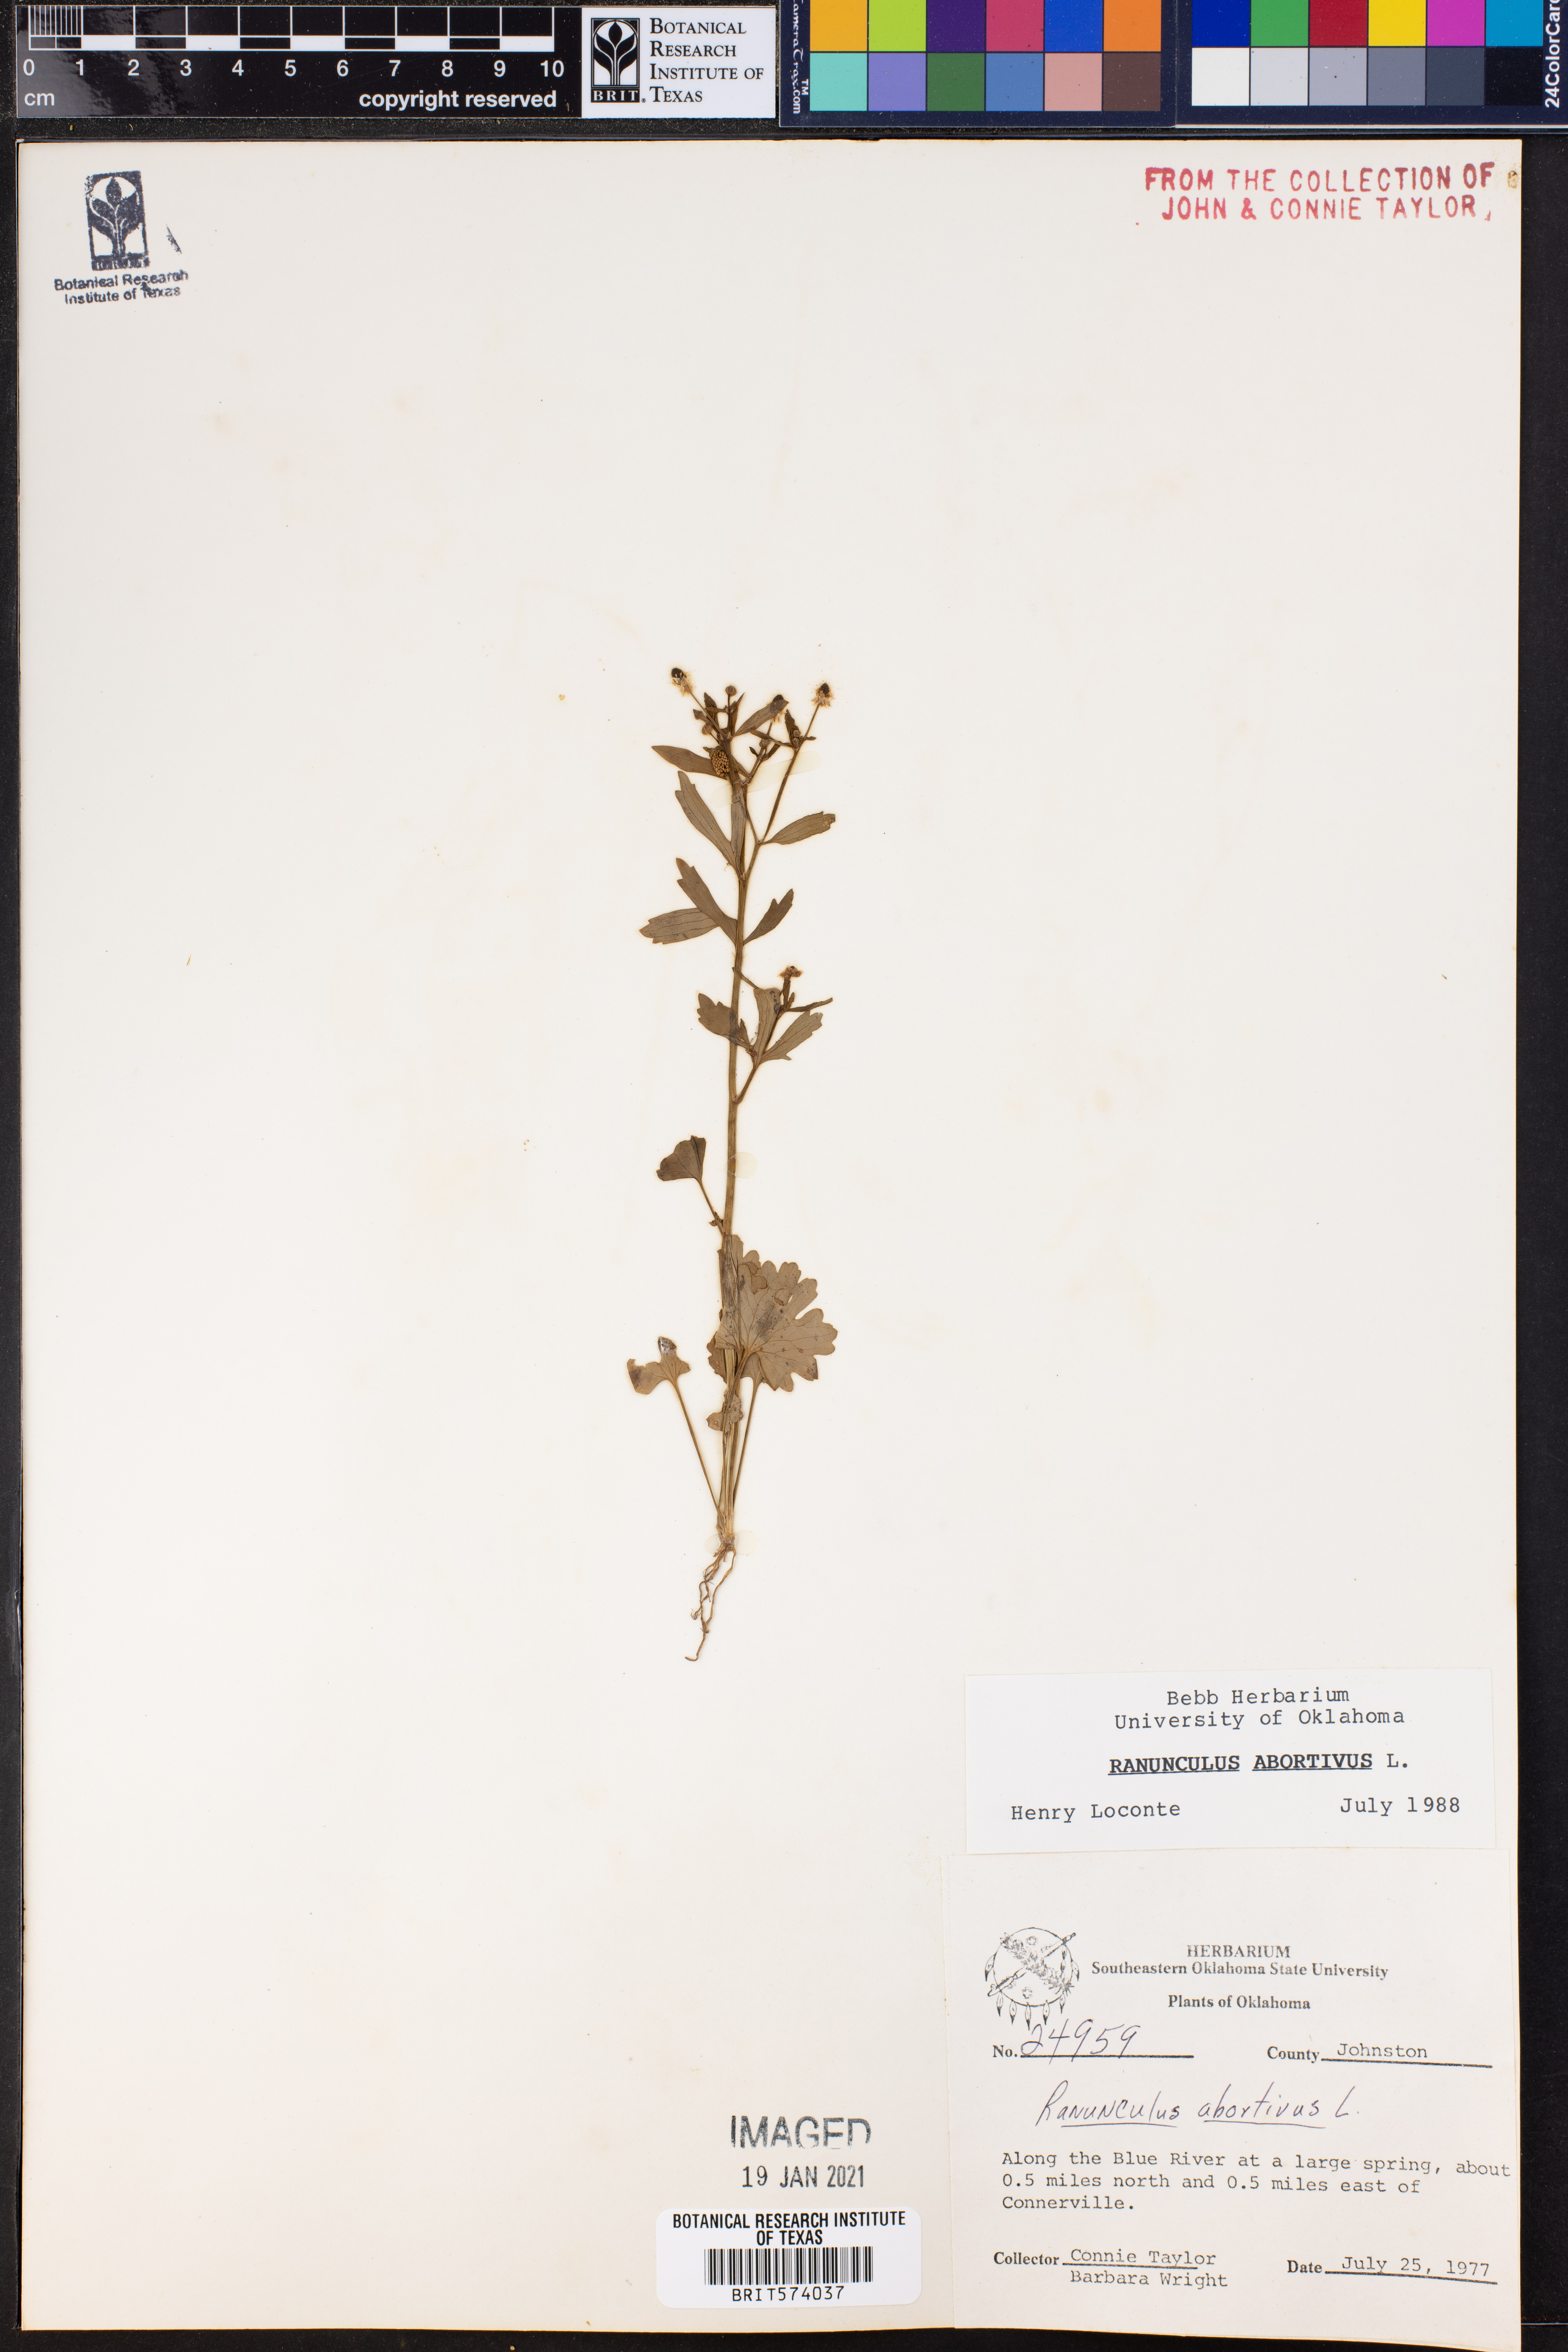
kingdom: Plantae
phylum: Tracheophyta
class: Magnoliopsida
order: Ranunculales
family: Ranunculaceae
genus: Ranunculus
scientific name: Ranunculus abortivus
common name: Early wood buttercup
